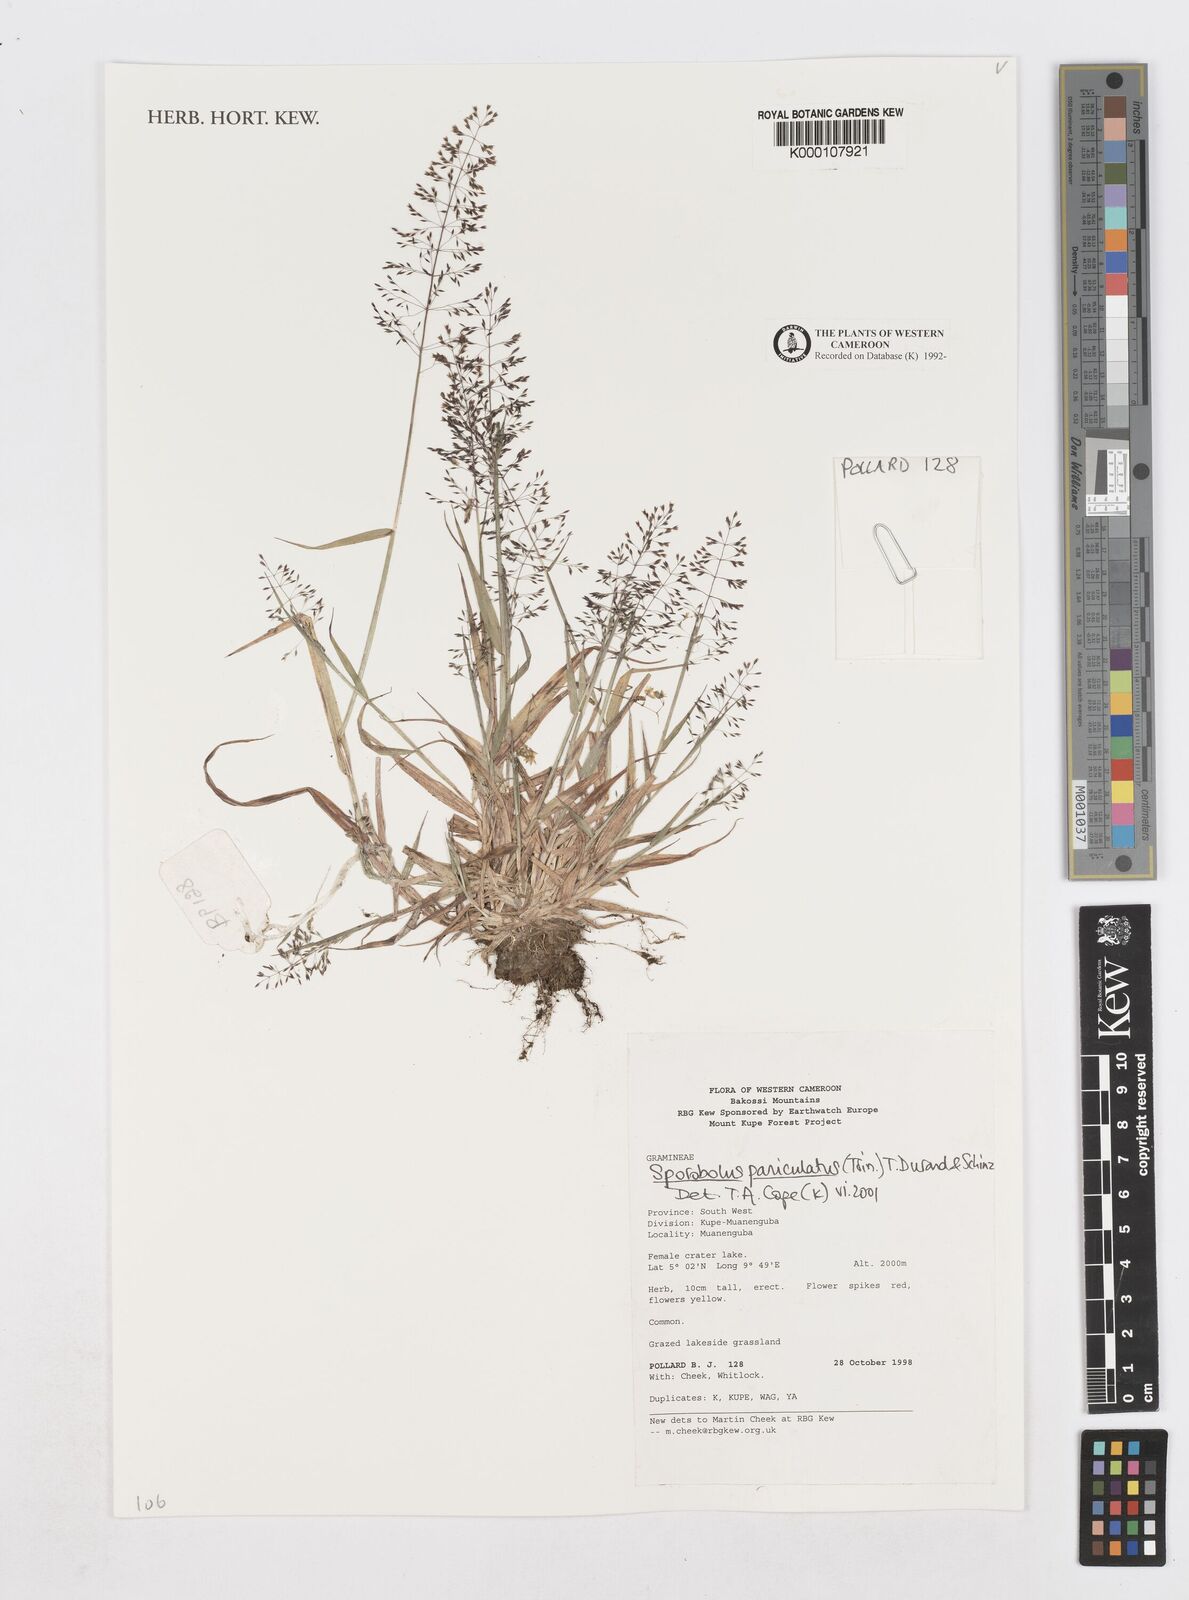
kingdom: Plantae
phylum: Tracheophyta
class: Liliopsida
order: Poales
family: Poaceae
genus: Sporobolus
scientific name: Sporobolus paniculatus
